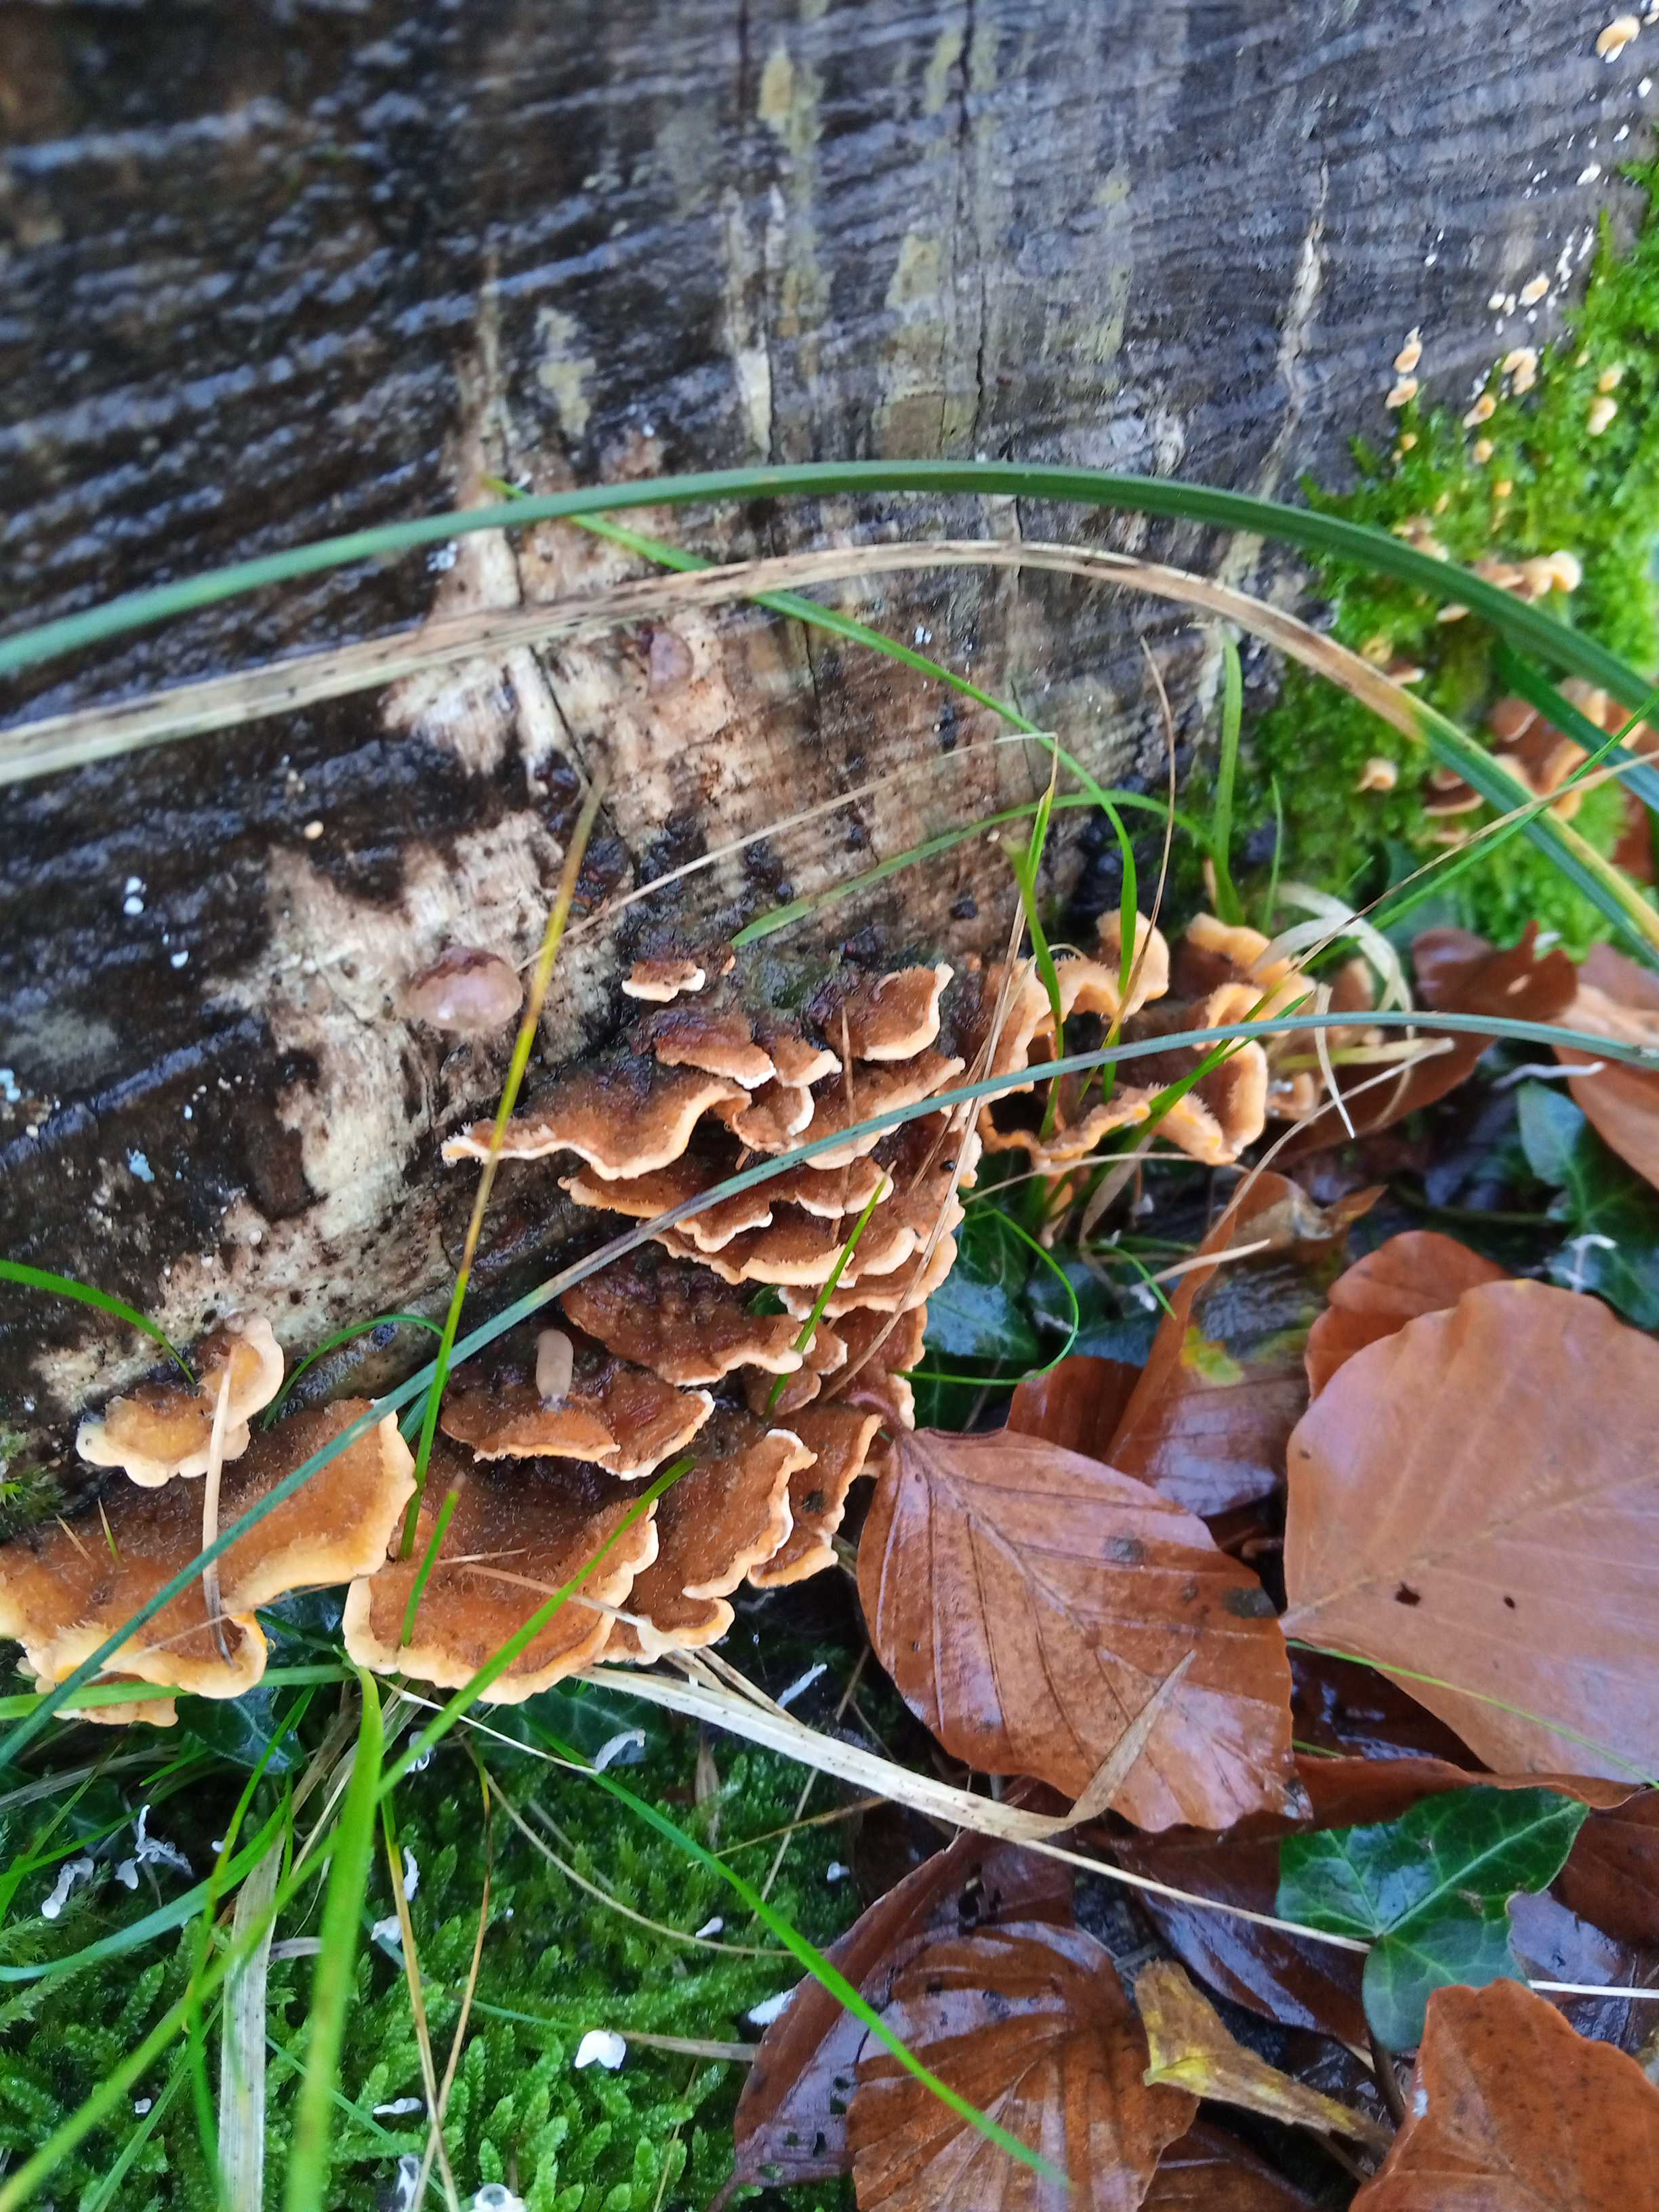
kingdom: Fungi
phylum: Basidiomycota
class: Agaricomycetes
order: Russulales
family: Stereaceae
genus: Stereum
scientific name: Stereum hirsutum
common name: håret lædersvamp
